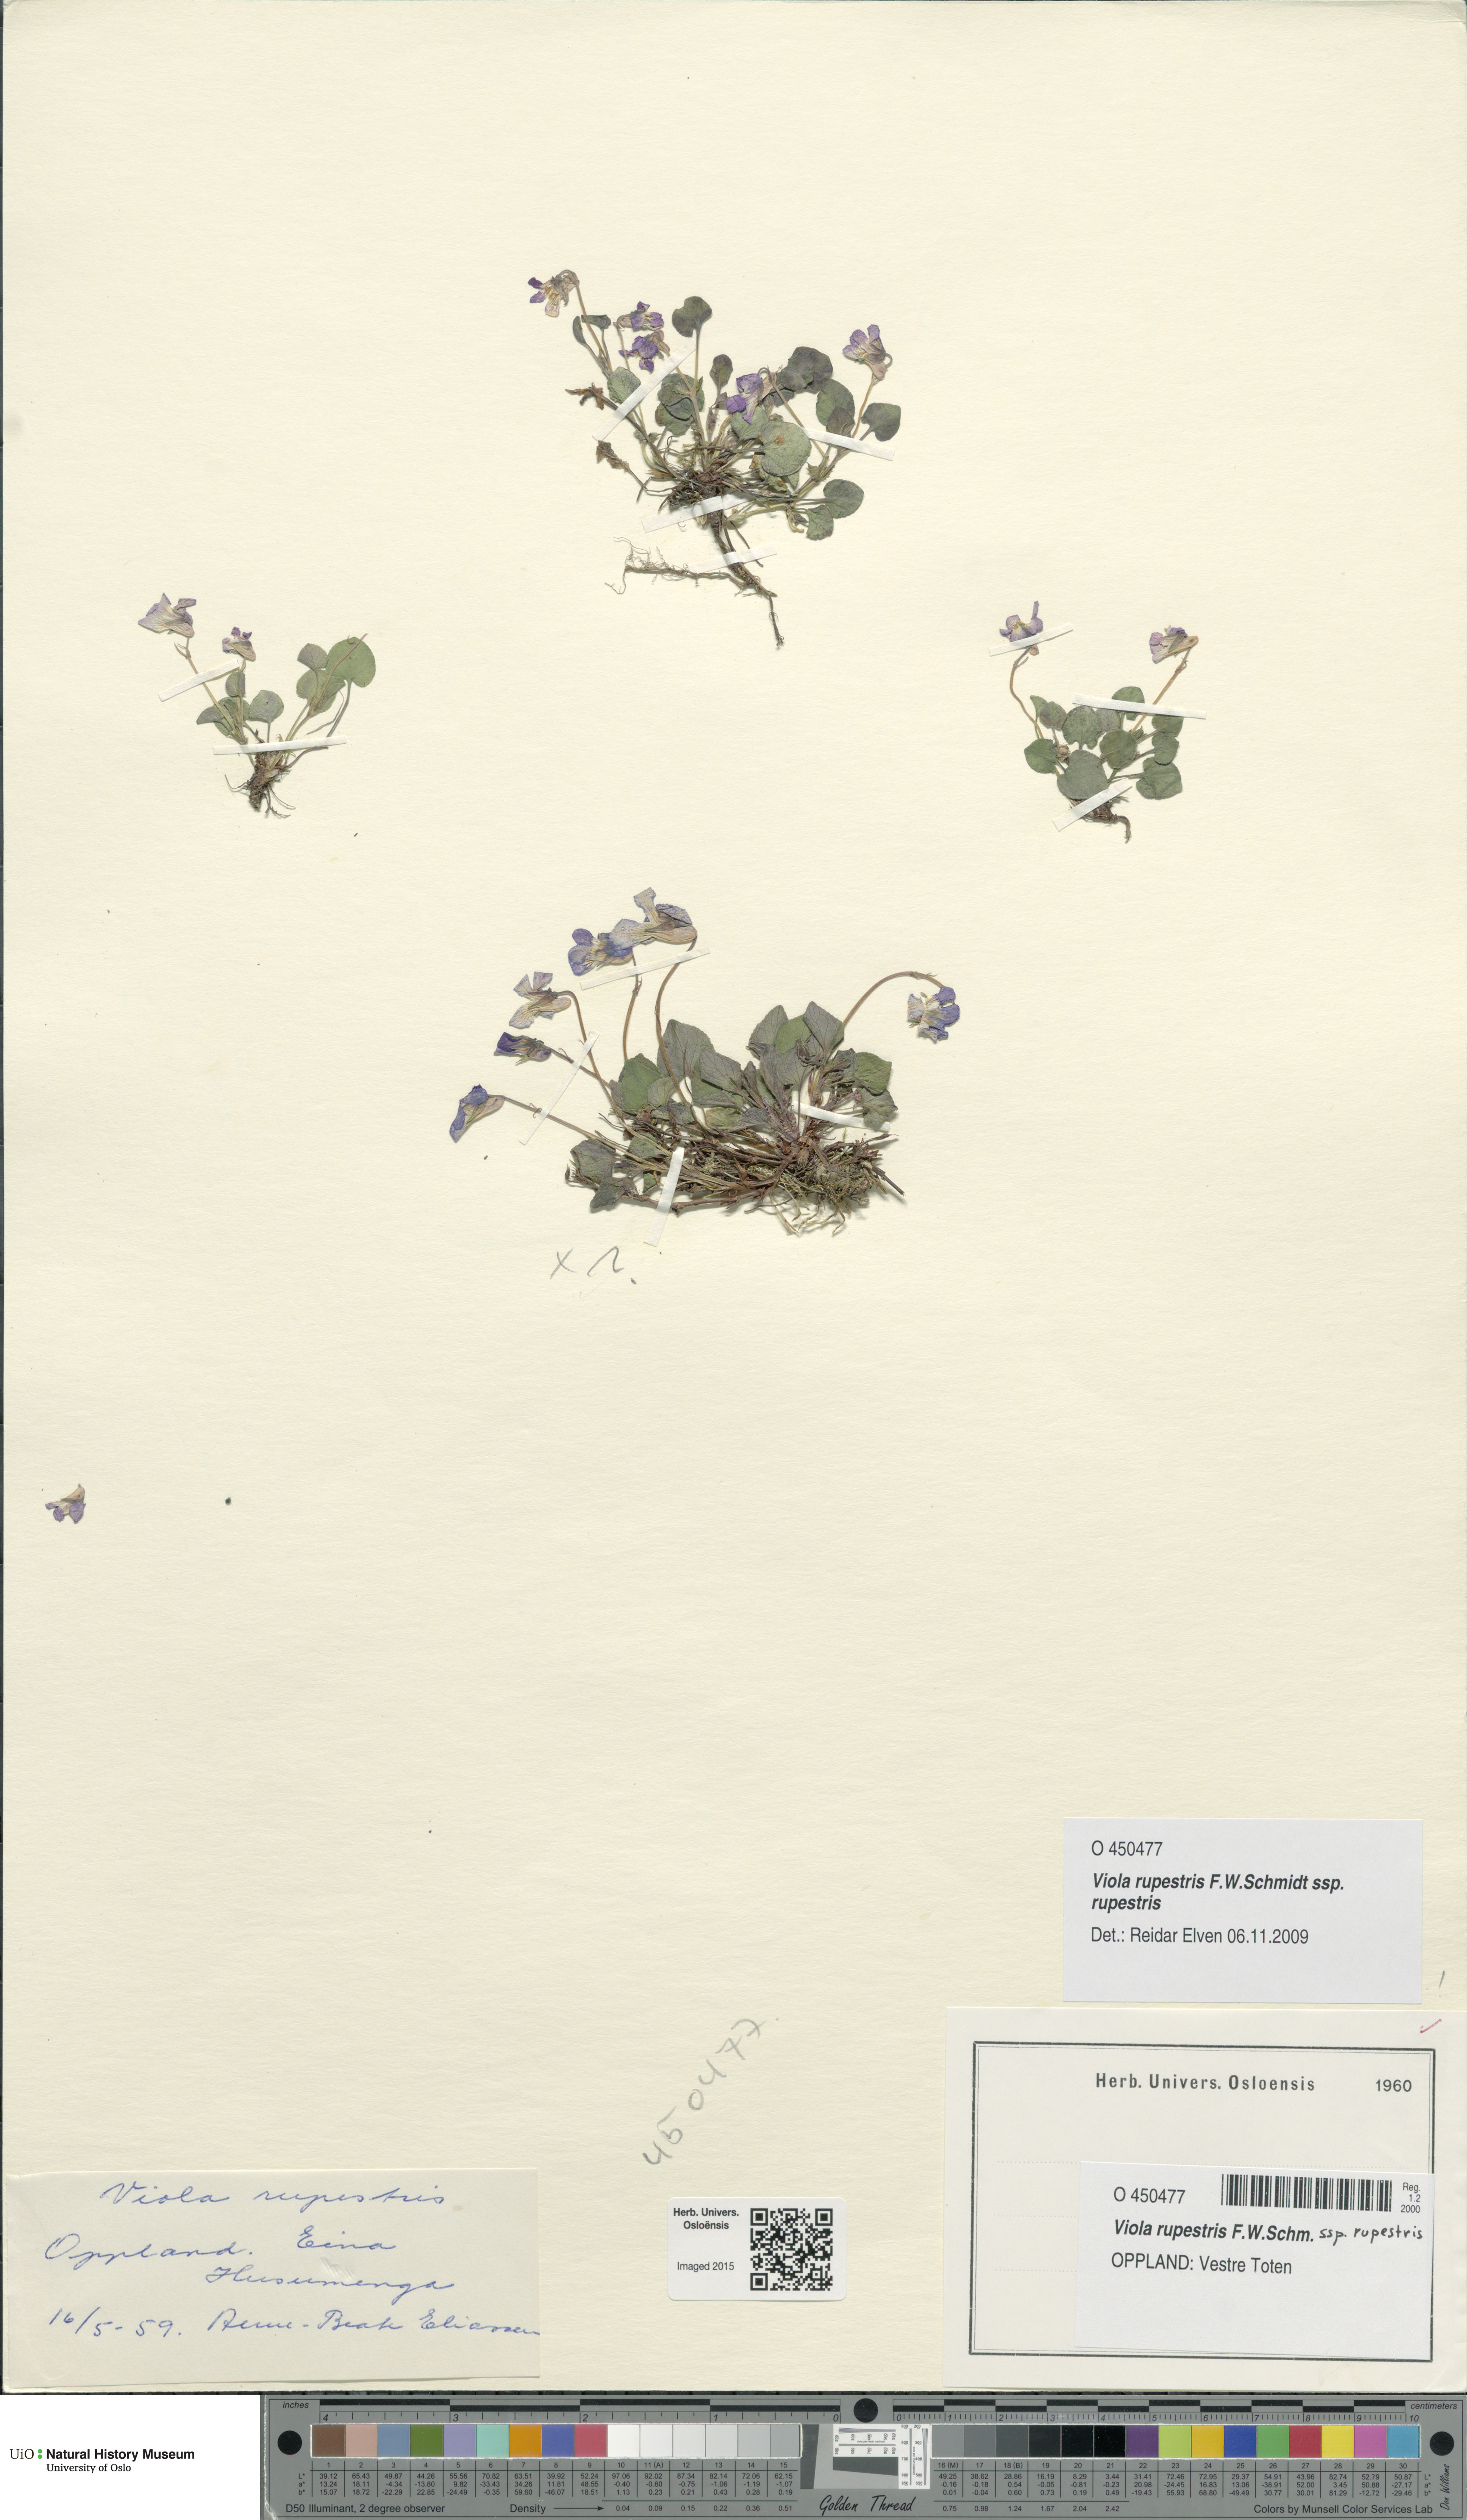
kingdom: Plantae
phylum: Tracheophyta
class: Magnoliopsida
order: Malpighiales
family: Violaceae
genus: Viola
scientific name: Viola rupestris
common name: Teesdale violet
